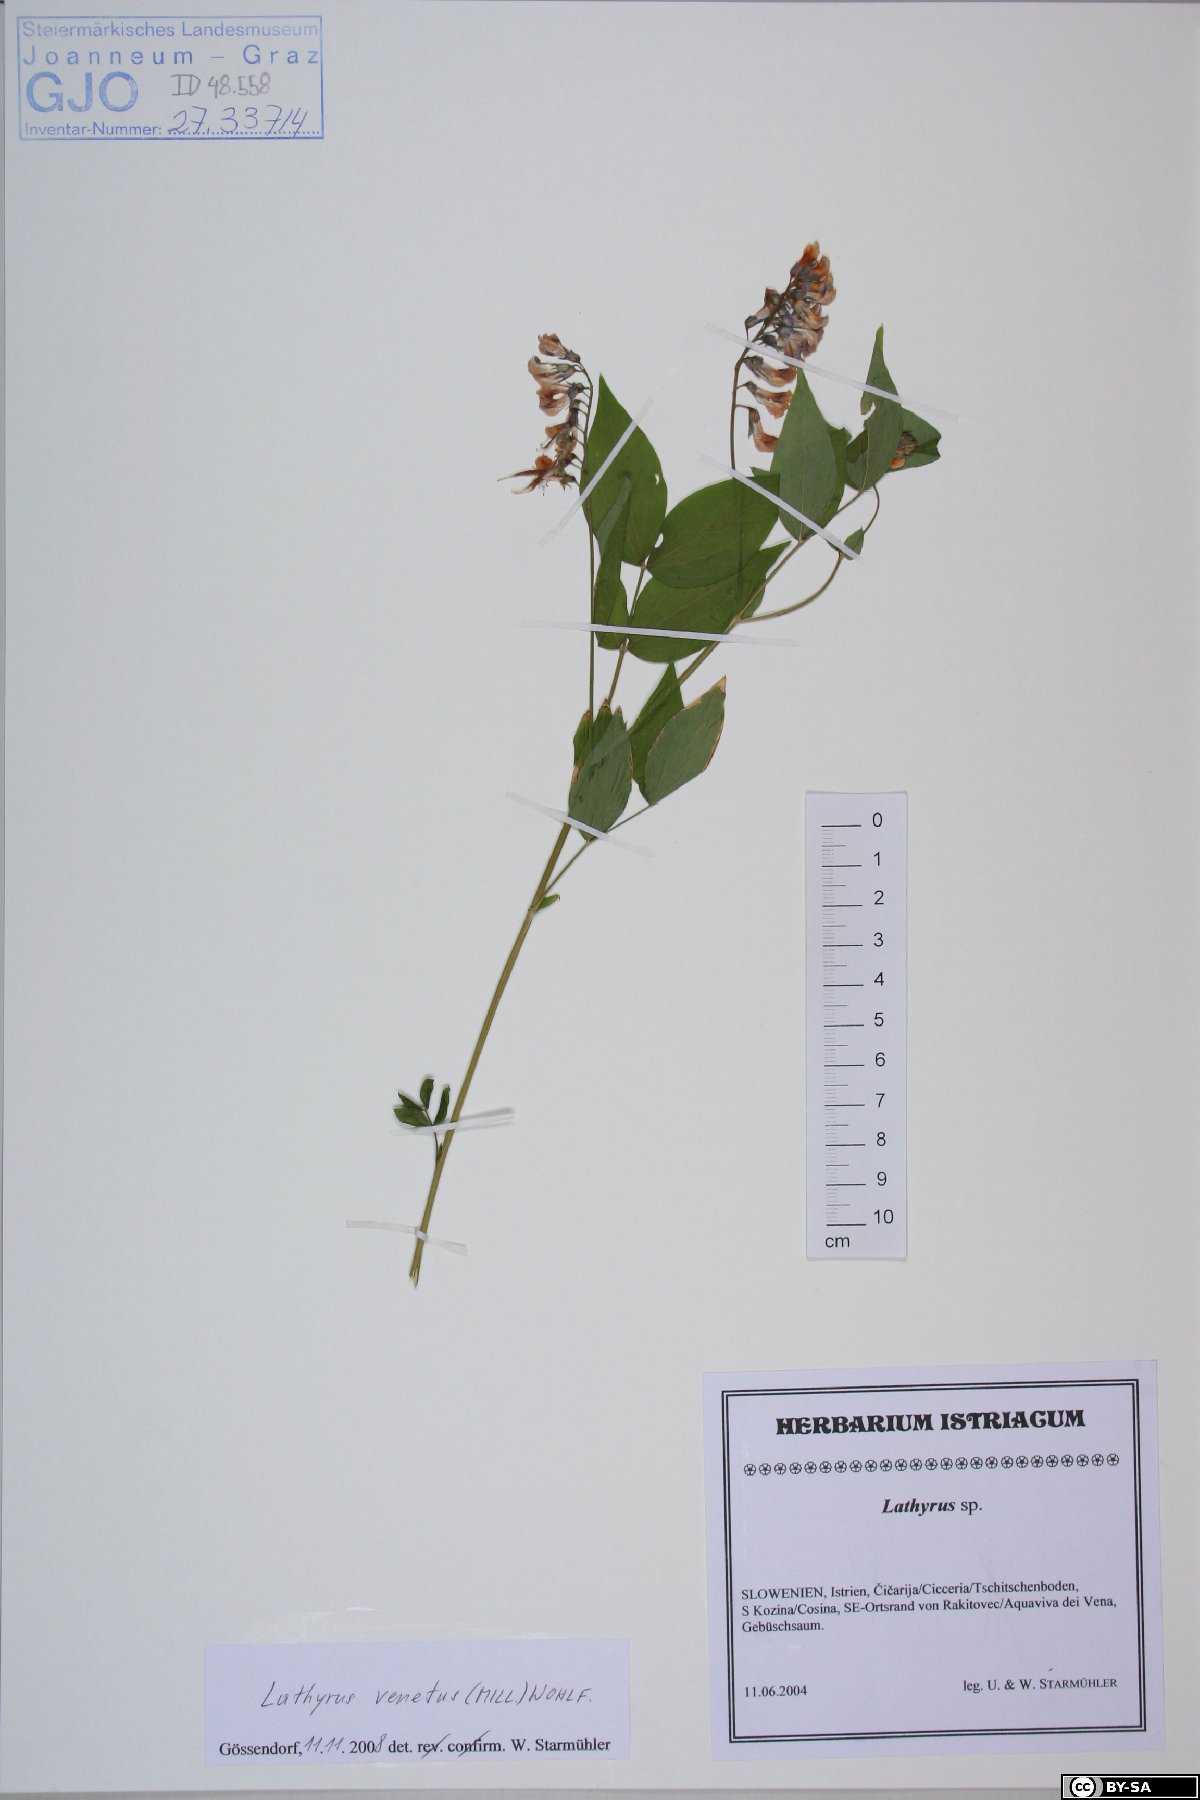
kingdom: Plantae
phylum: Tracheophyta
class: Magnoliopsida
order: Fabales
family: Fabaceae
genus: Lathyrus
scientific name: Lathyrus venetus
